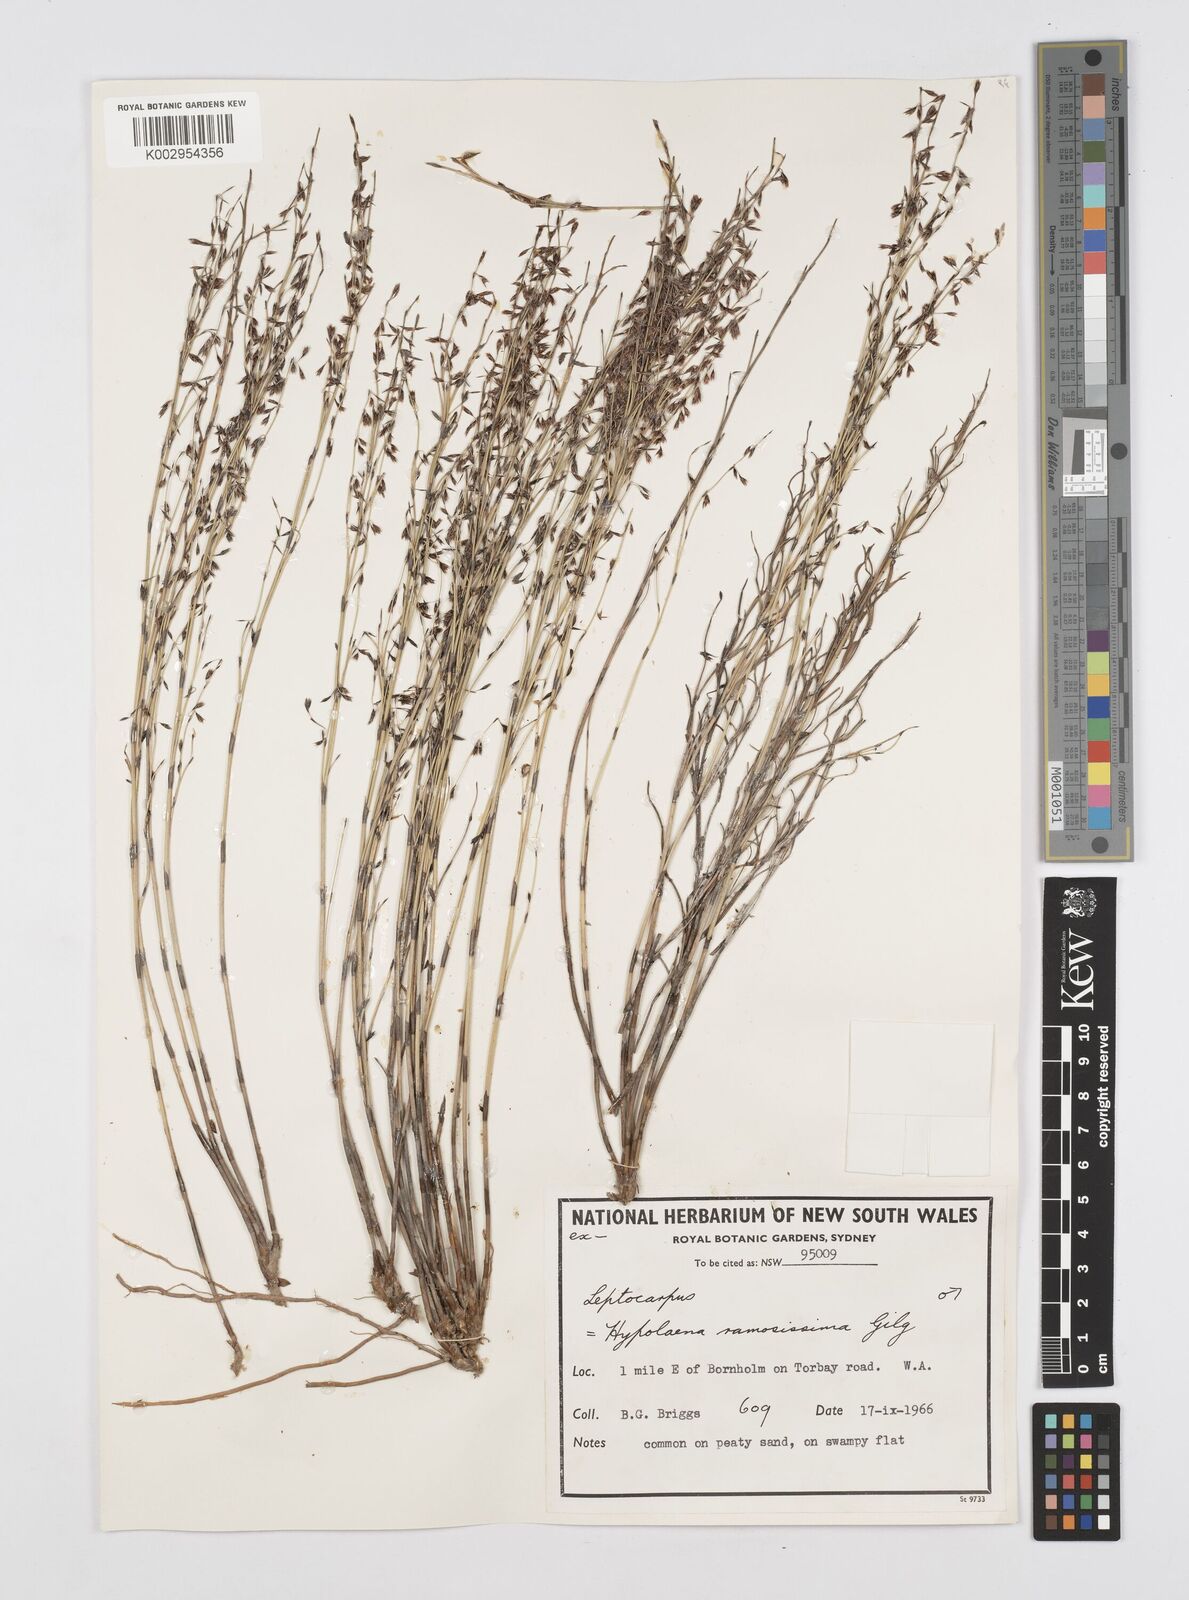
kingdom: Plantae
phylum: Tracheophyta
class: Liliopsida
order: Poales
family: Restionaceae
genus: Leptocarpus
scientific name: Leptocarpus
